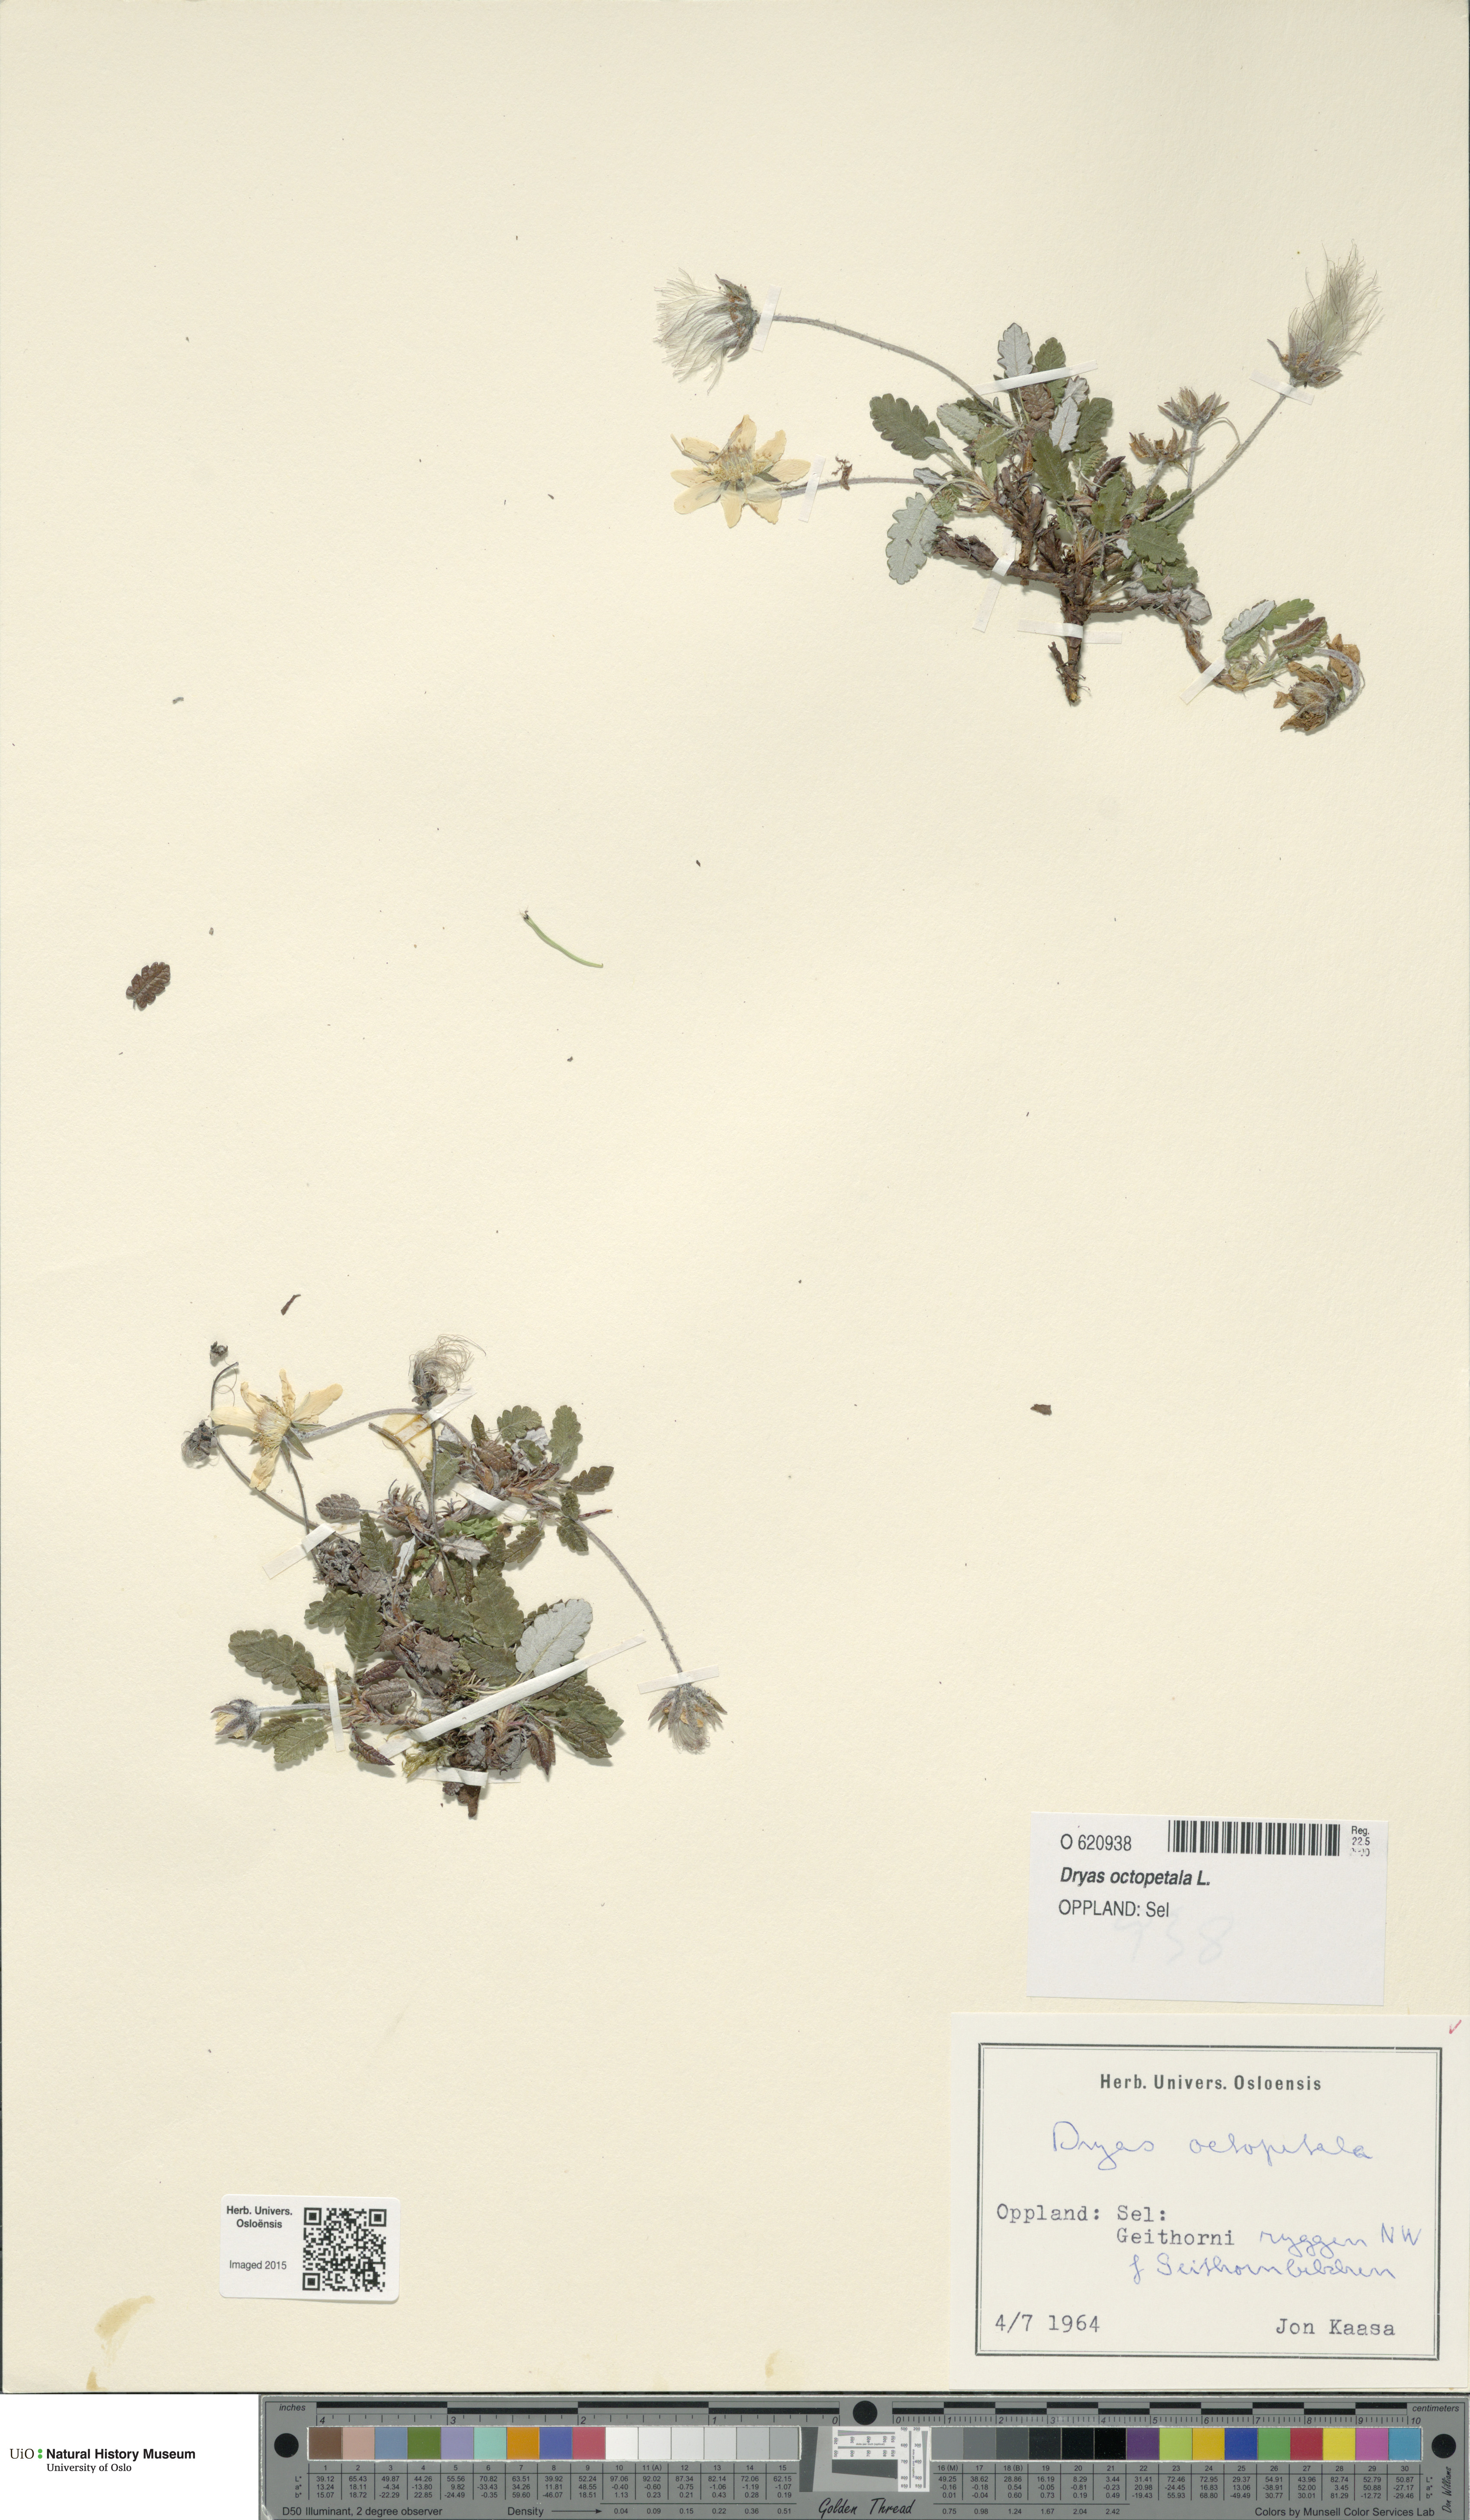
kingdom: Plantae
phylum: Tracheophyta
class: Magnoliopsida
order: Rosales
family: Rosaceae
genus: Dryas
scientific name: Dryas octopetala
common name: Eight-petal mountain-avens
